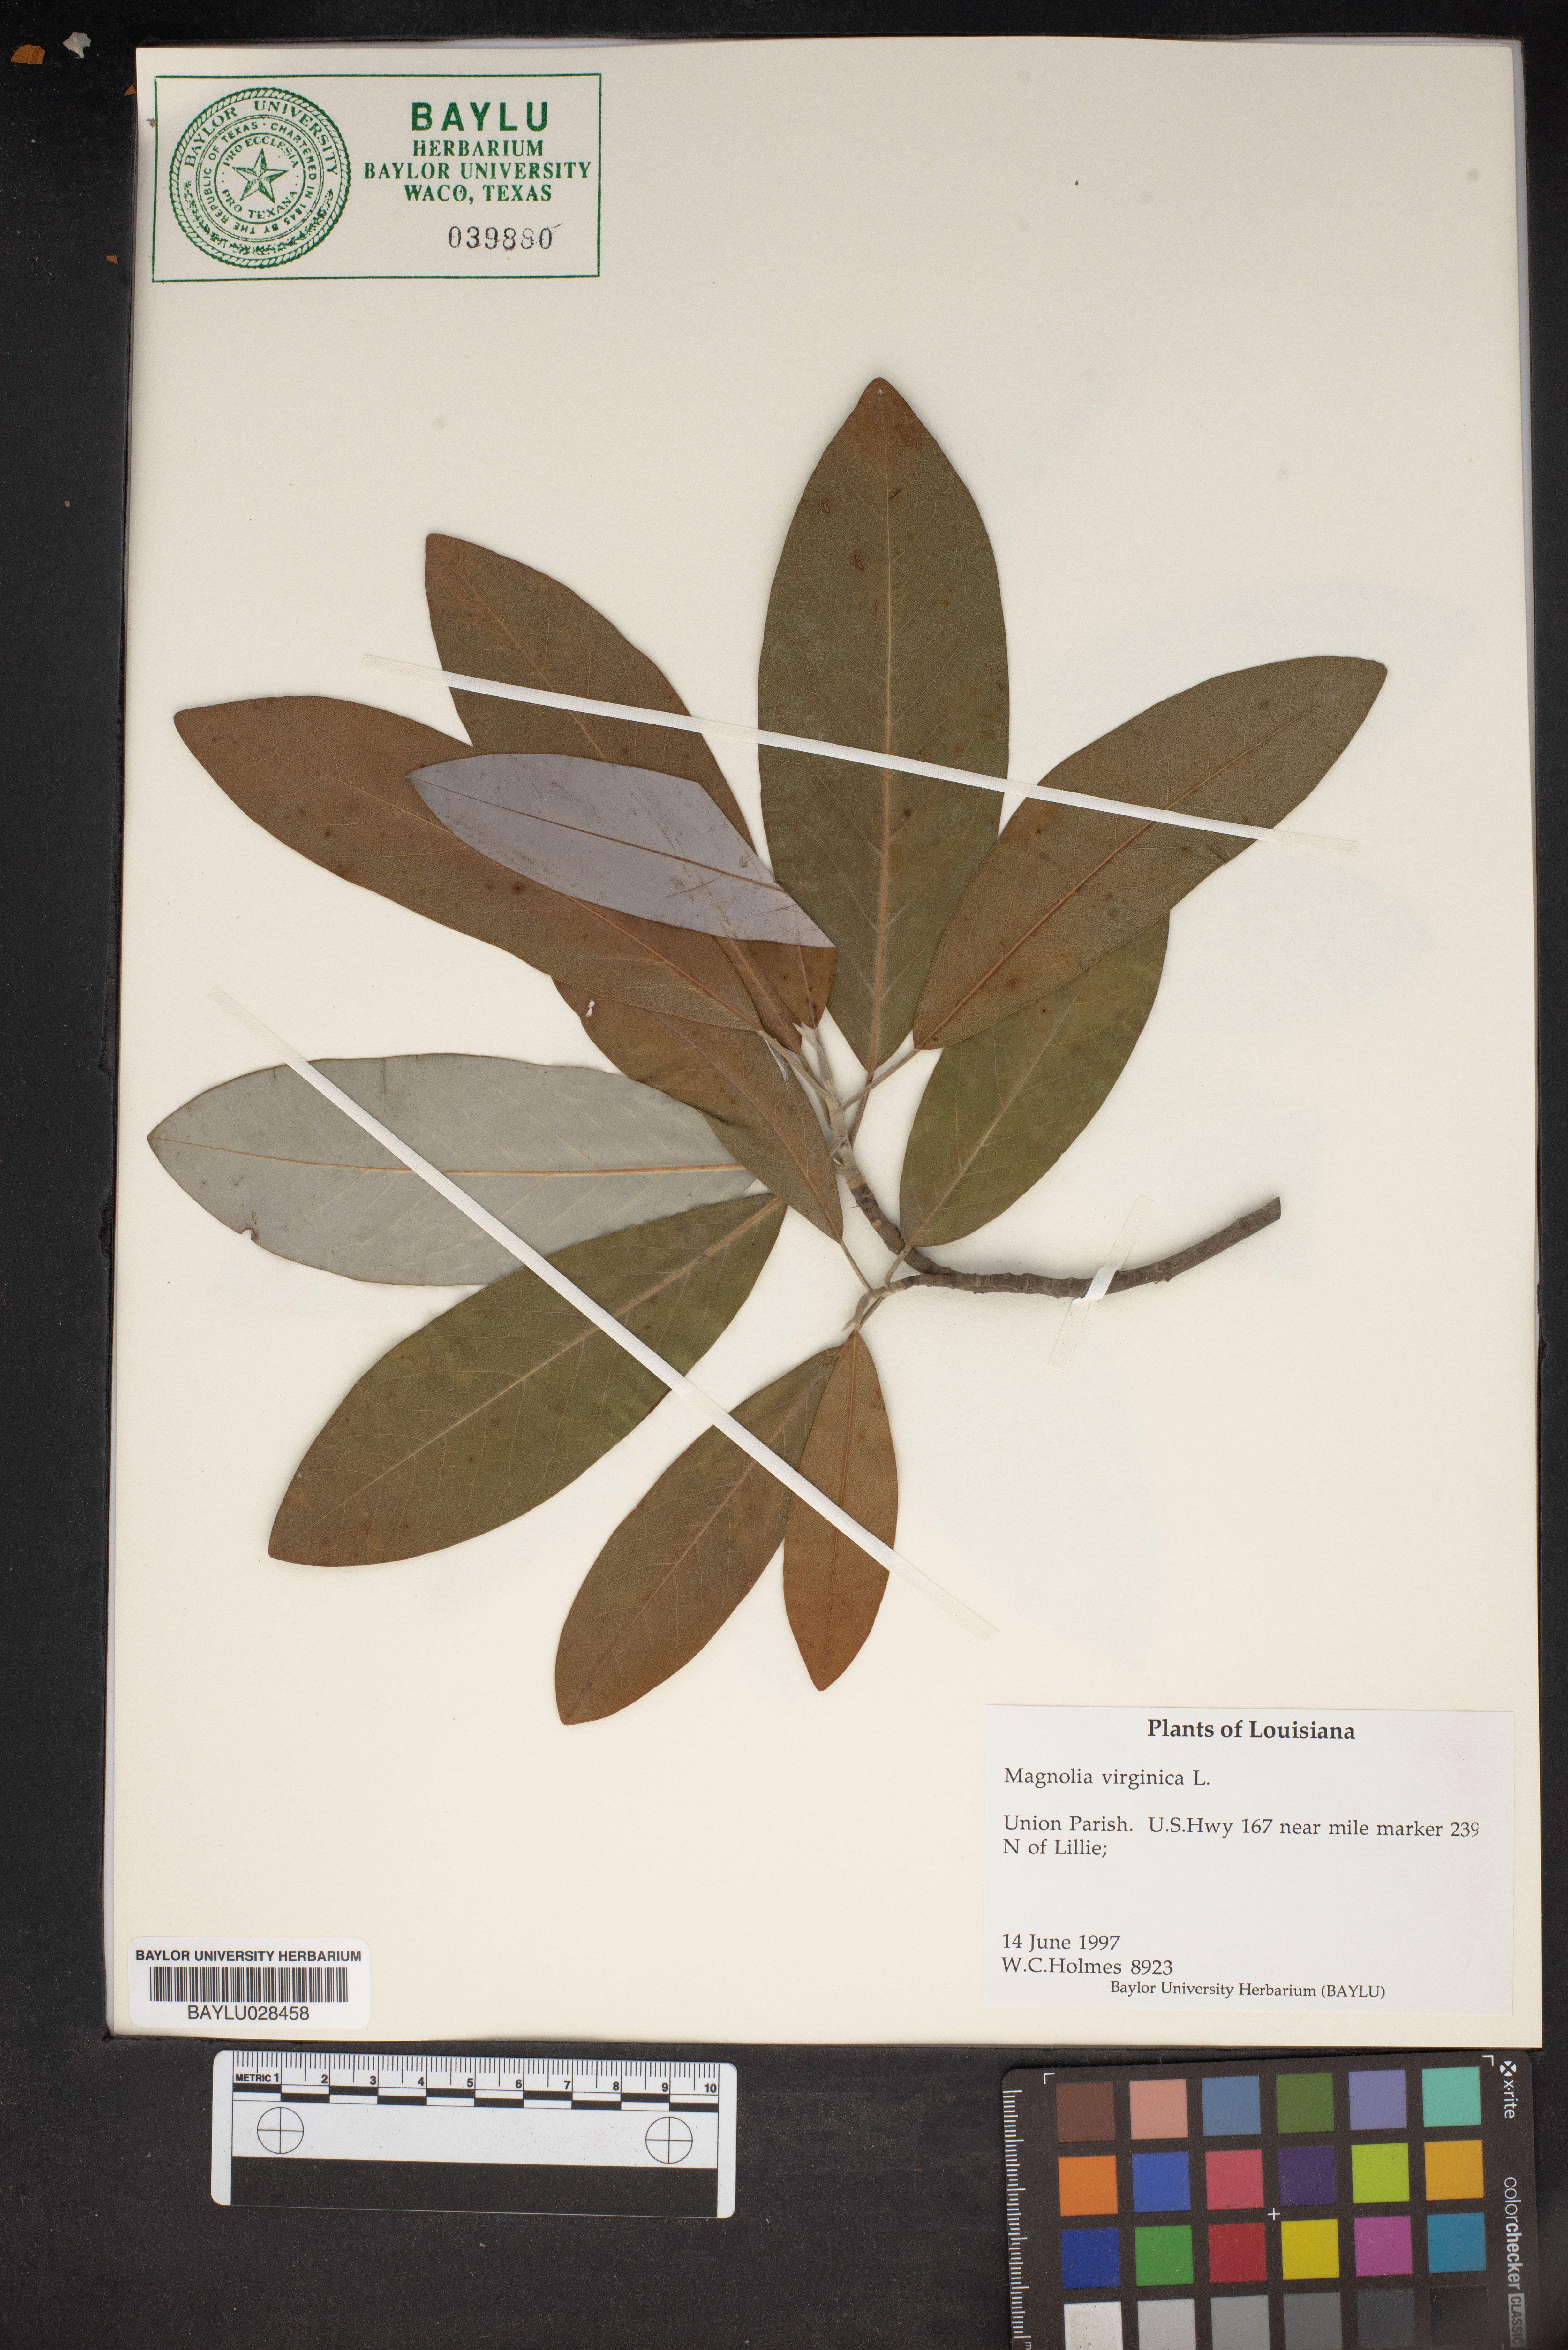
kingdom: Plantae
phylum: Tracheophyta
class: Magnoliopsida
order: Magnoliales
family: Magnoliaceae
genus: Magnolia
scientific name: Magnolia virginiana
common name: Swamp bay
